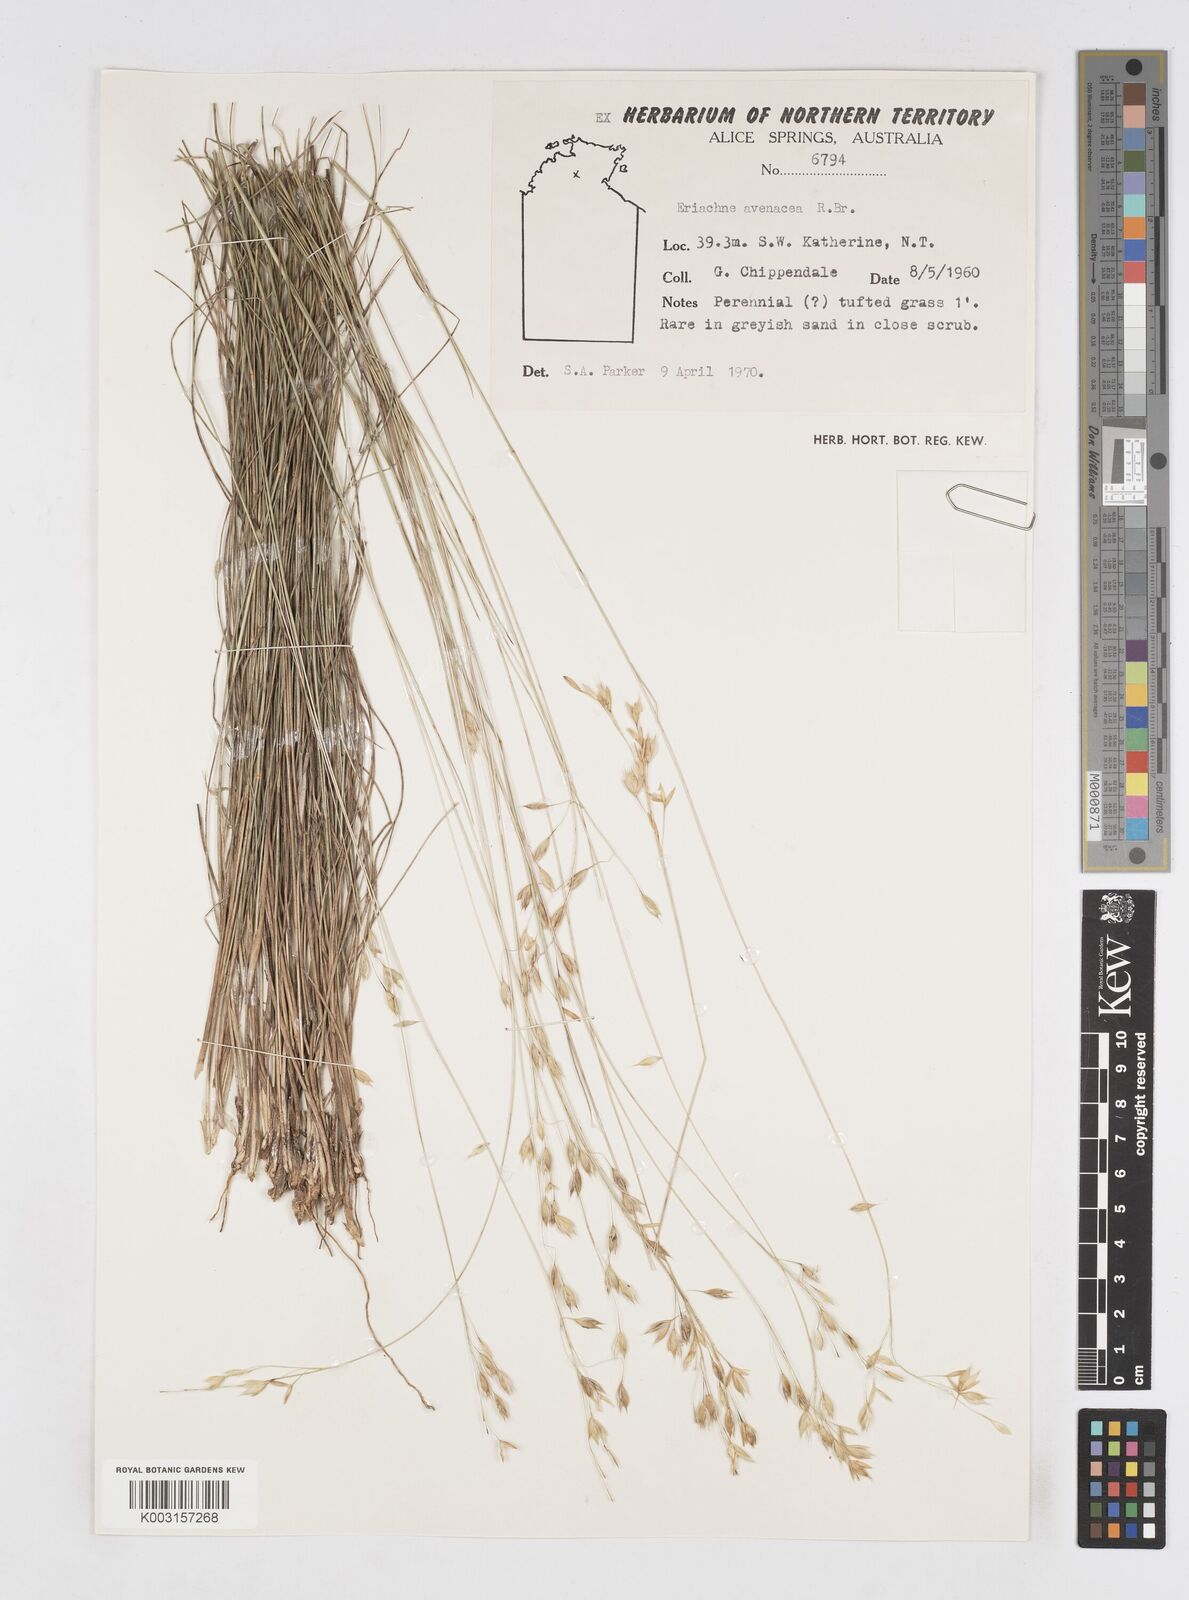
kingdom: Plantae
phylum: Tracheophyta
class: Liliopsida
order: Poales
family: Poaceae
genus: Eriachne
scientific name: Eriachne avenacea
